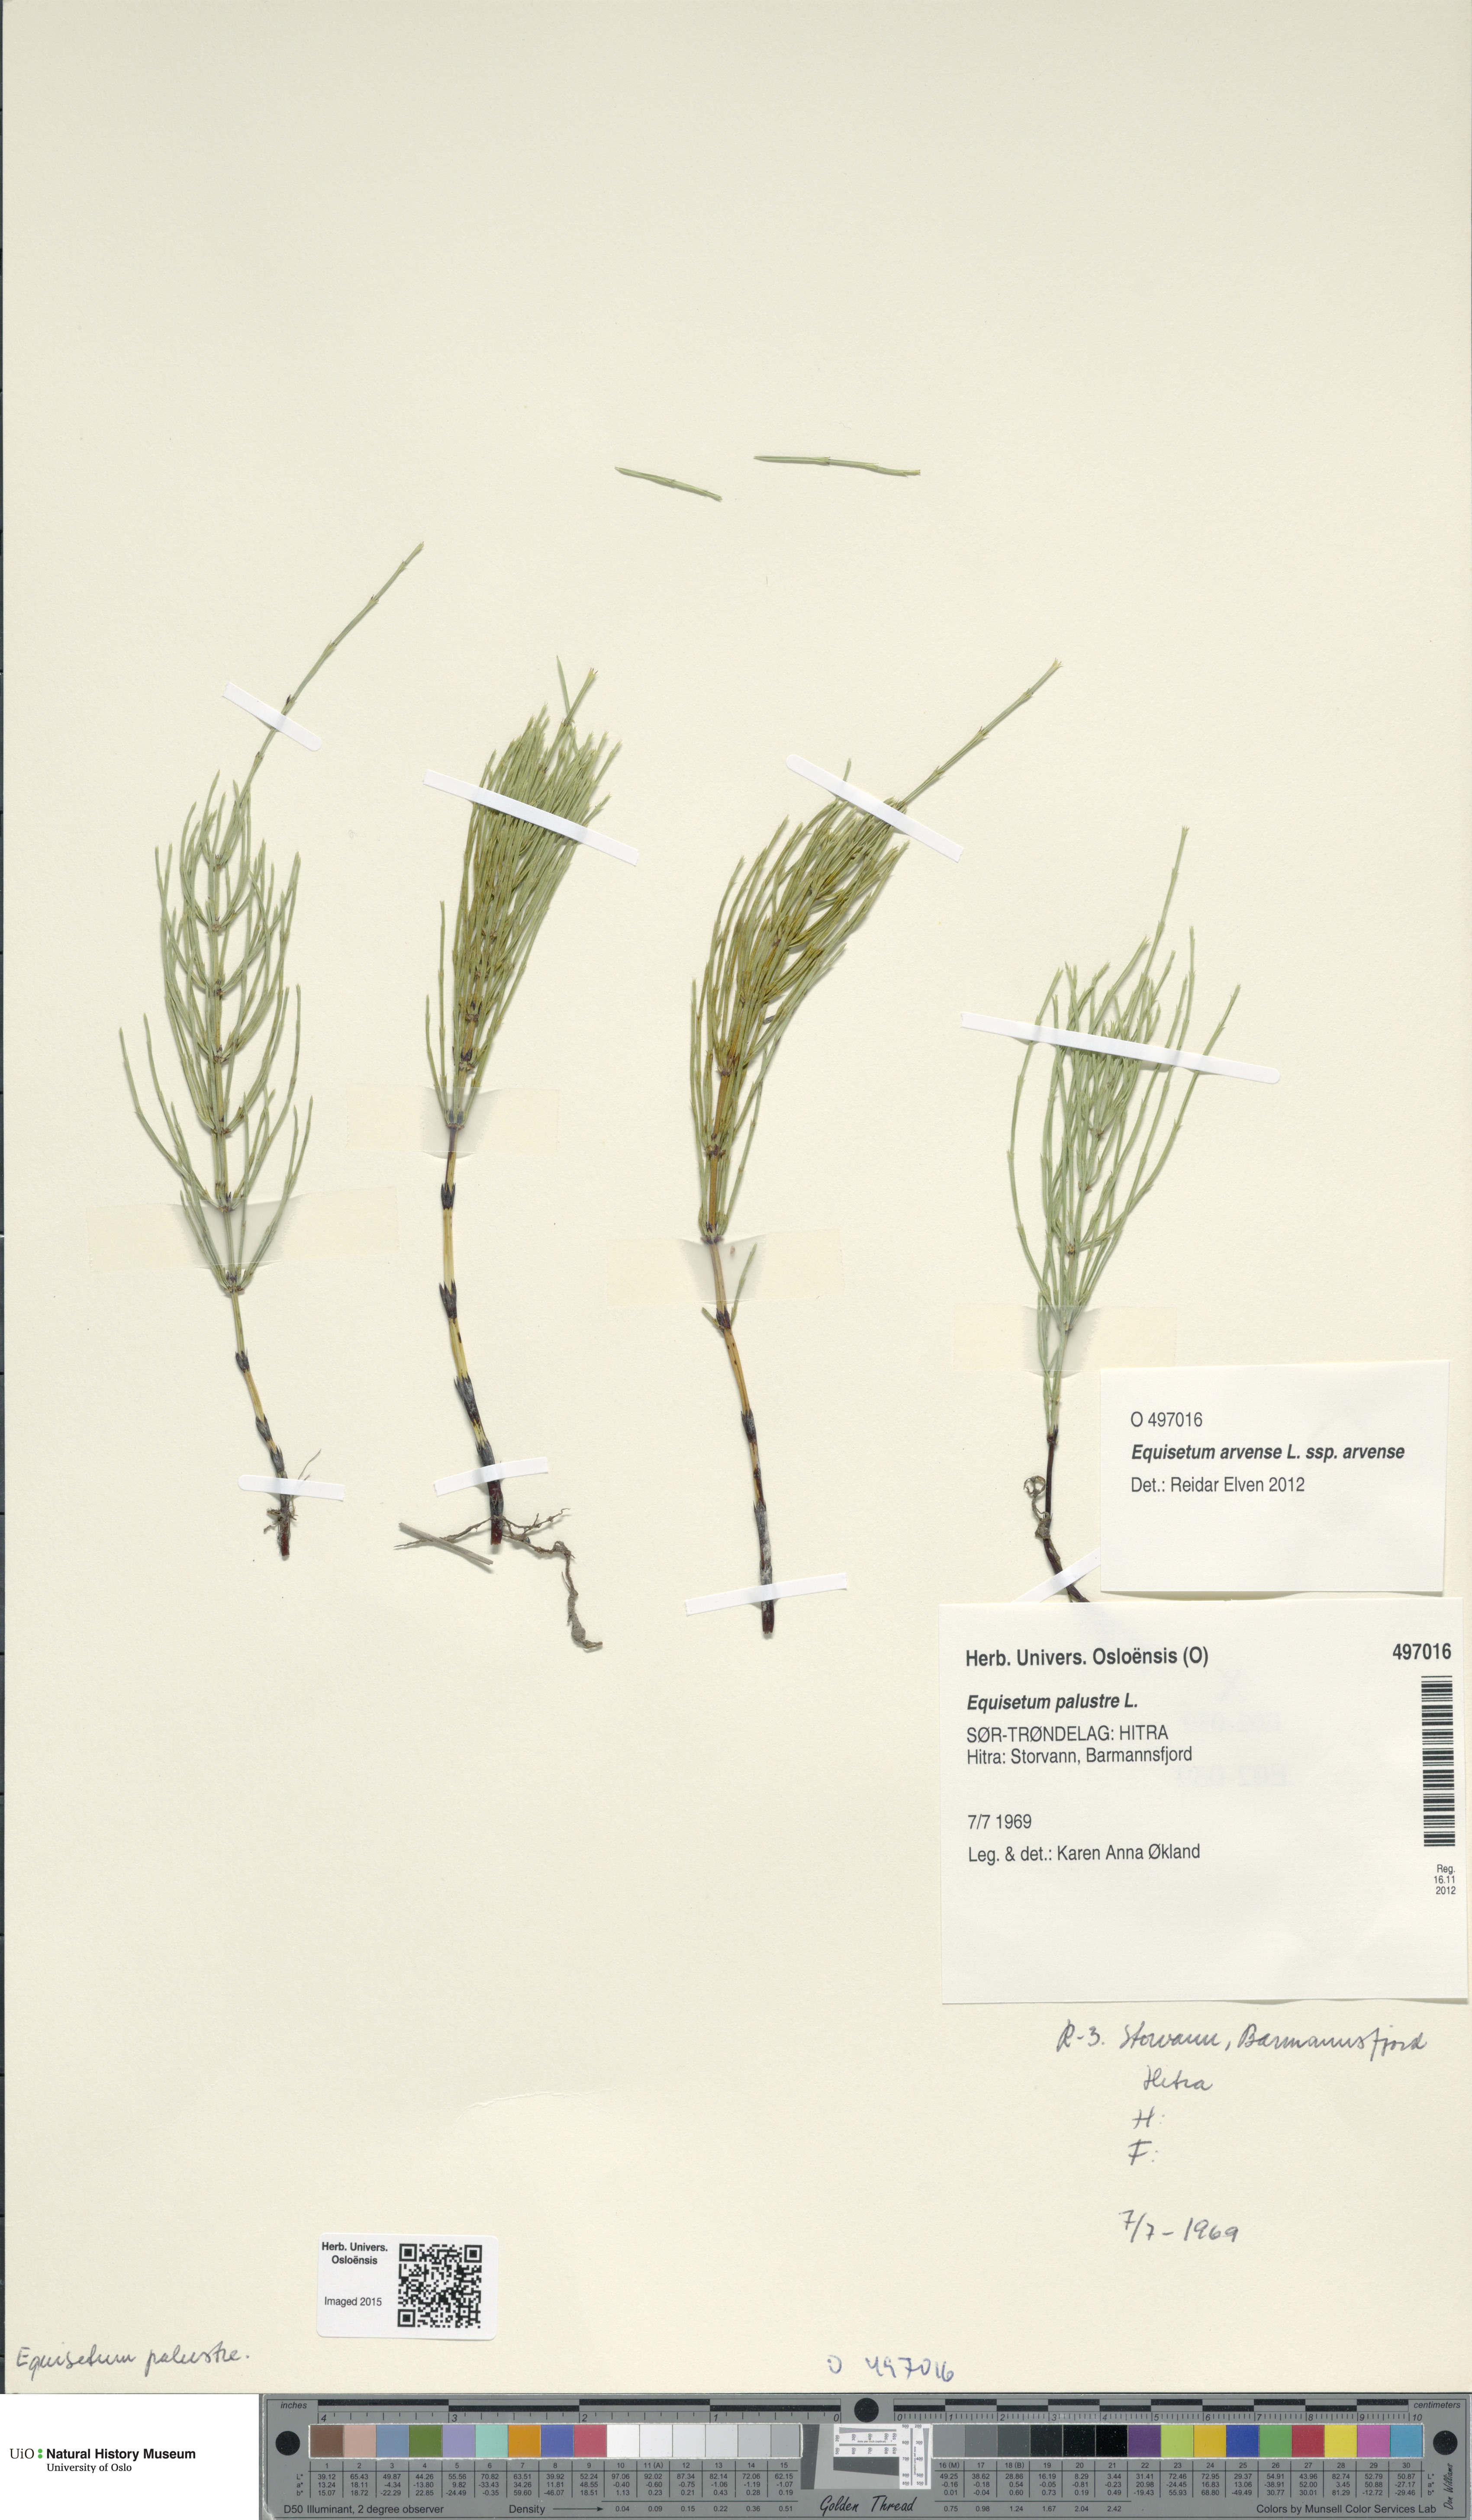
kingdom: Plantae
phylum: Tracheophyta
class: Polypodiopsida
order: Equisetales
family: Equisetaceae
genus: Equisetum
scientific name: Equisetum palustre
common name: Marsh horsetail
